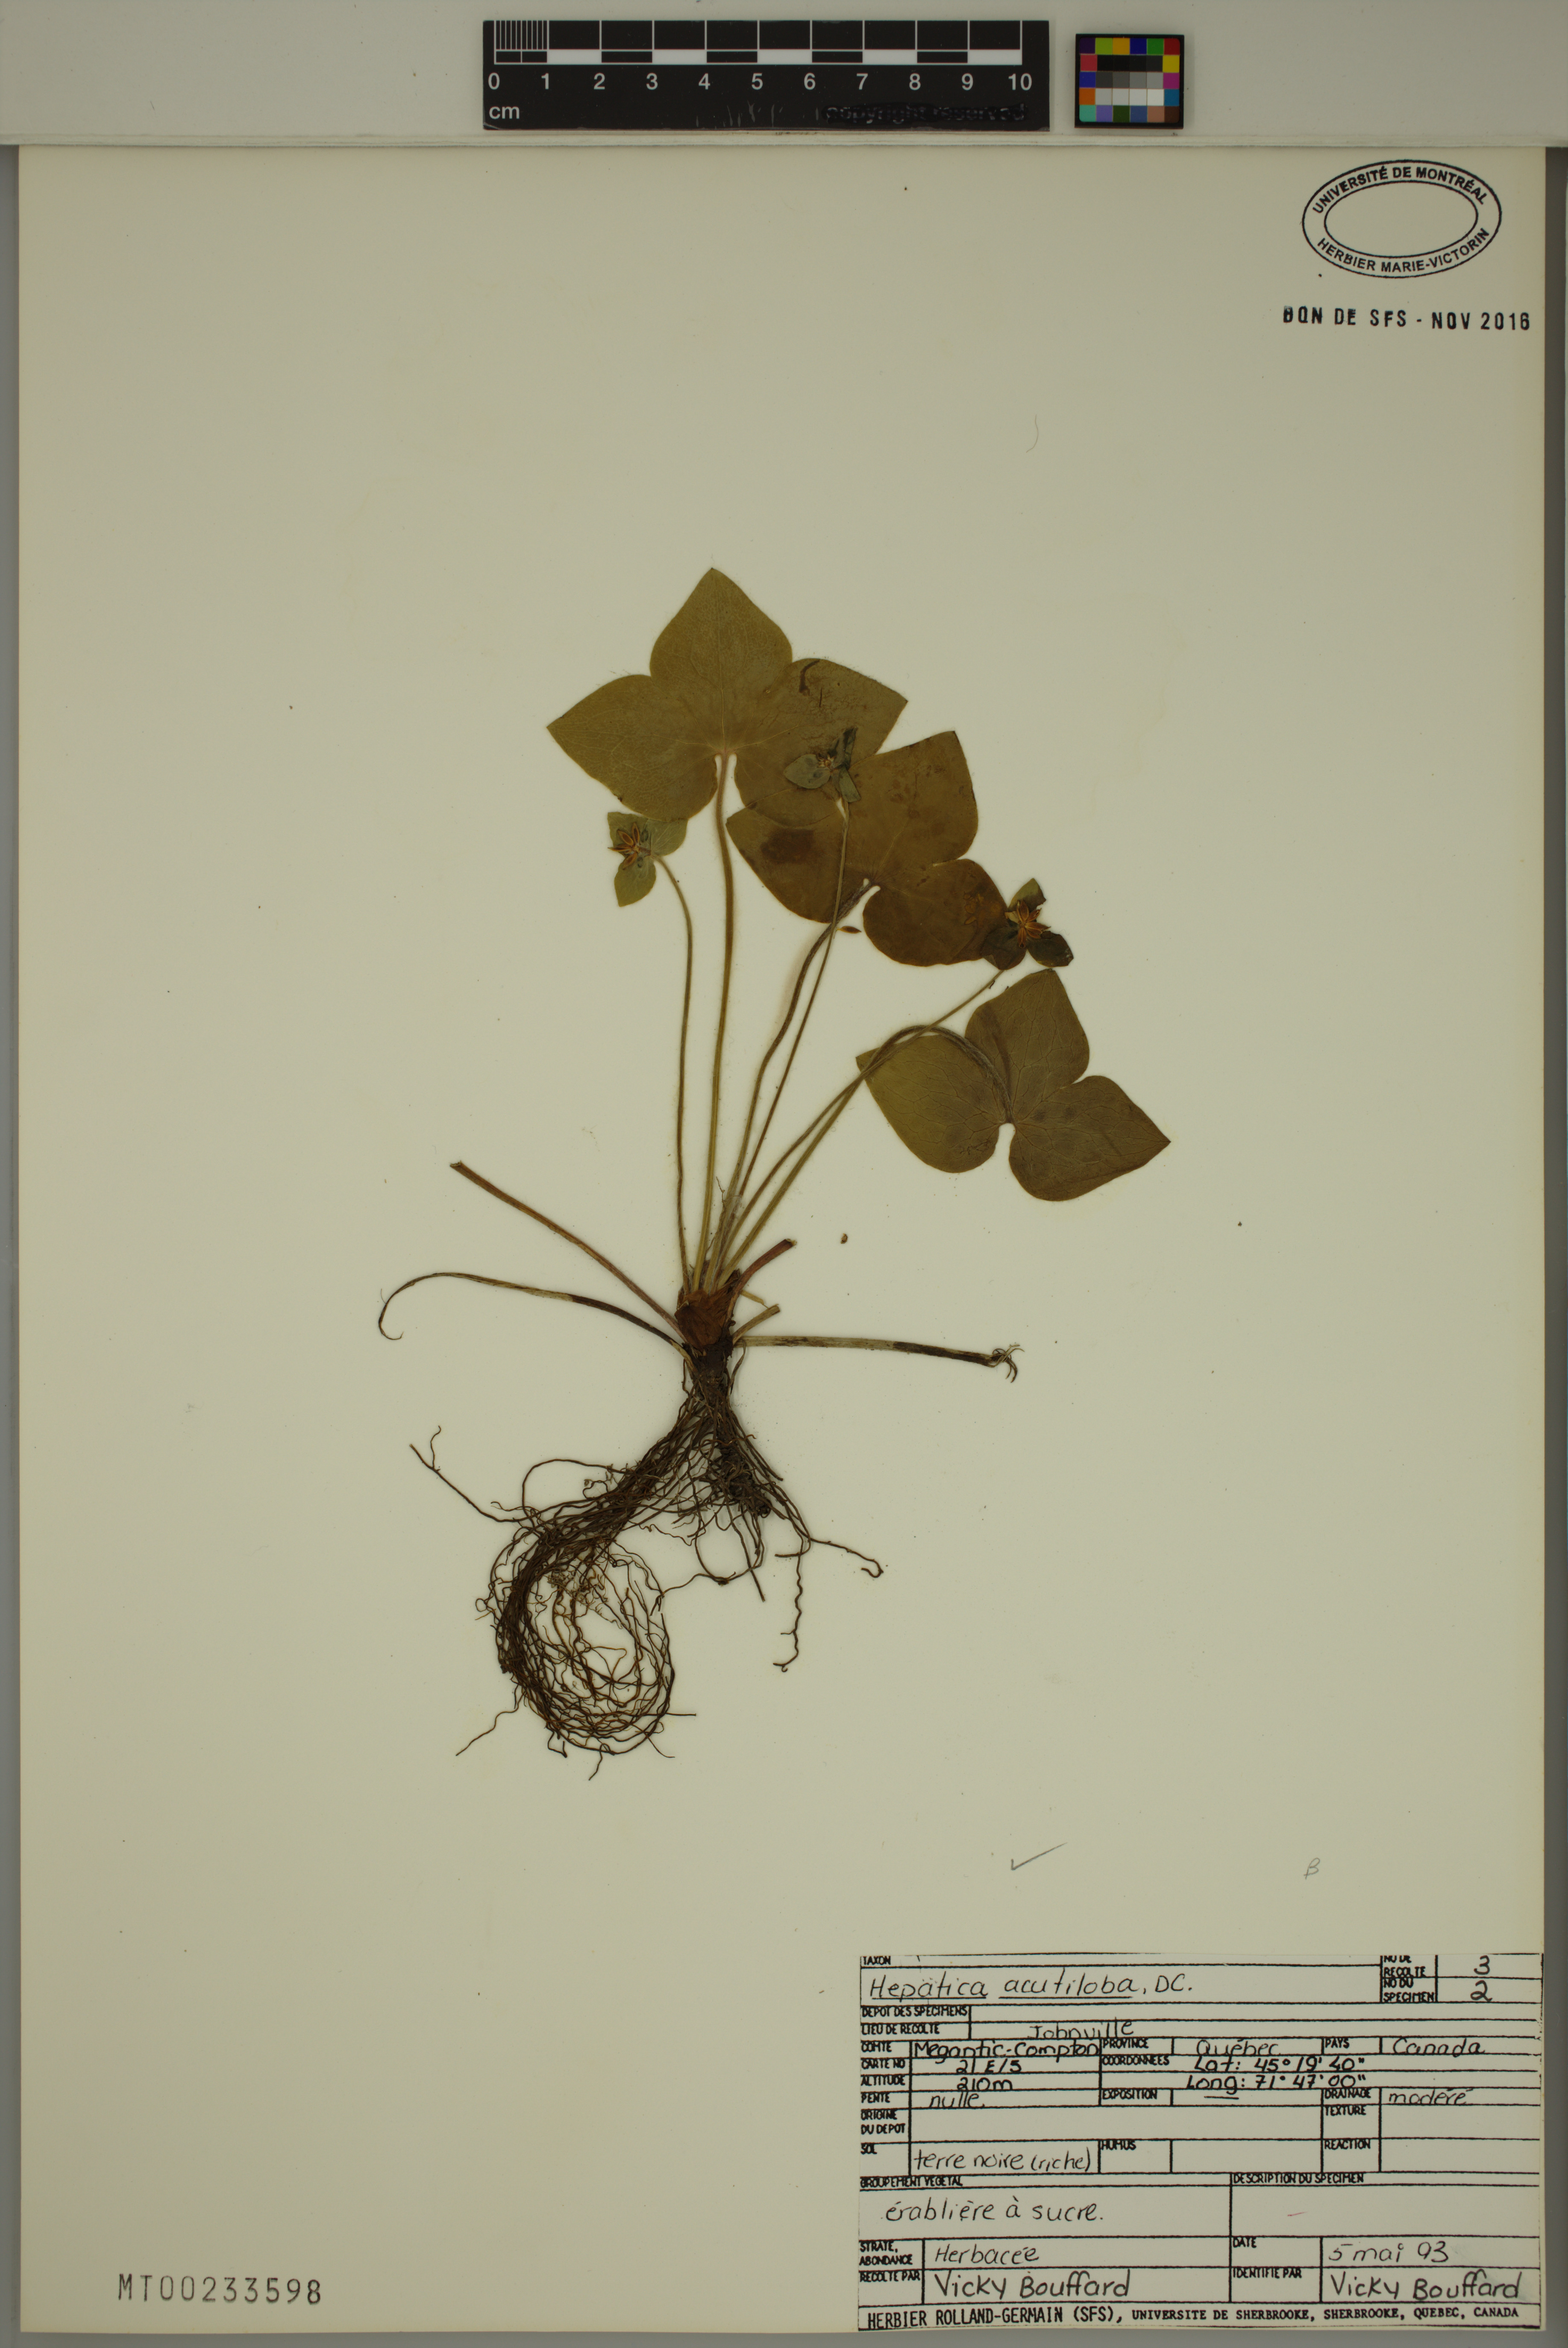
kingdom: Plantae
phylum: Tracheophyta
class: Magnoliopsida
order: Ranunculales
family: Ranunculaceae
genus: Hepatica
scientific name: Hepatica acutiloba
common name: Sharp-lobed hepatica
